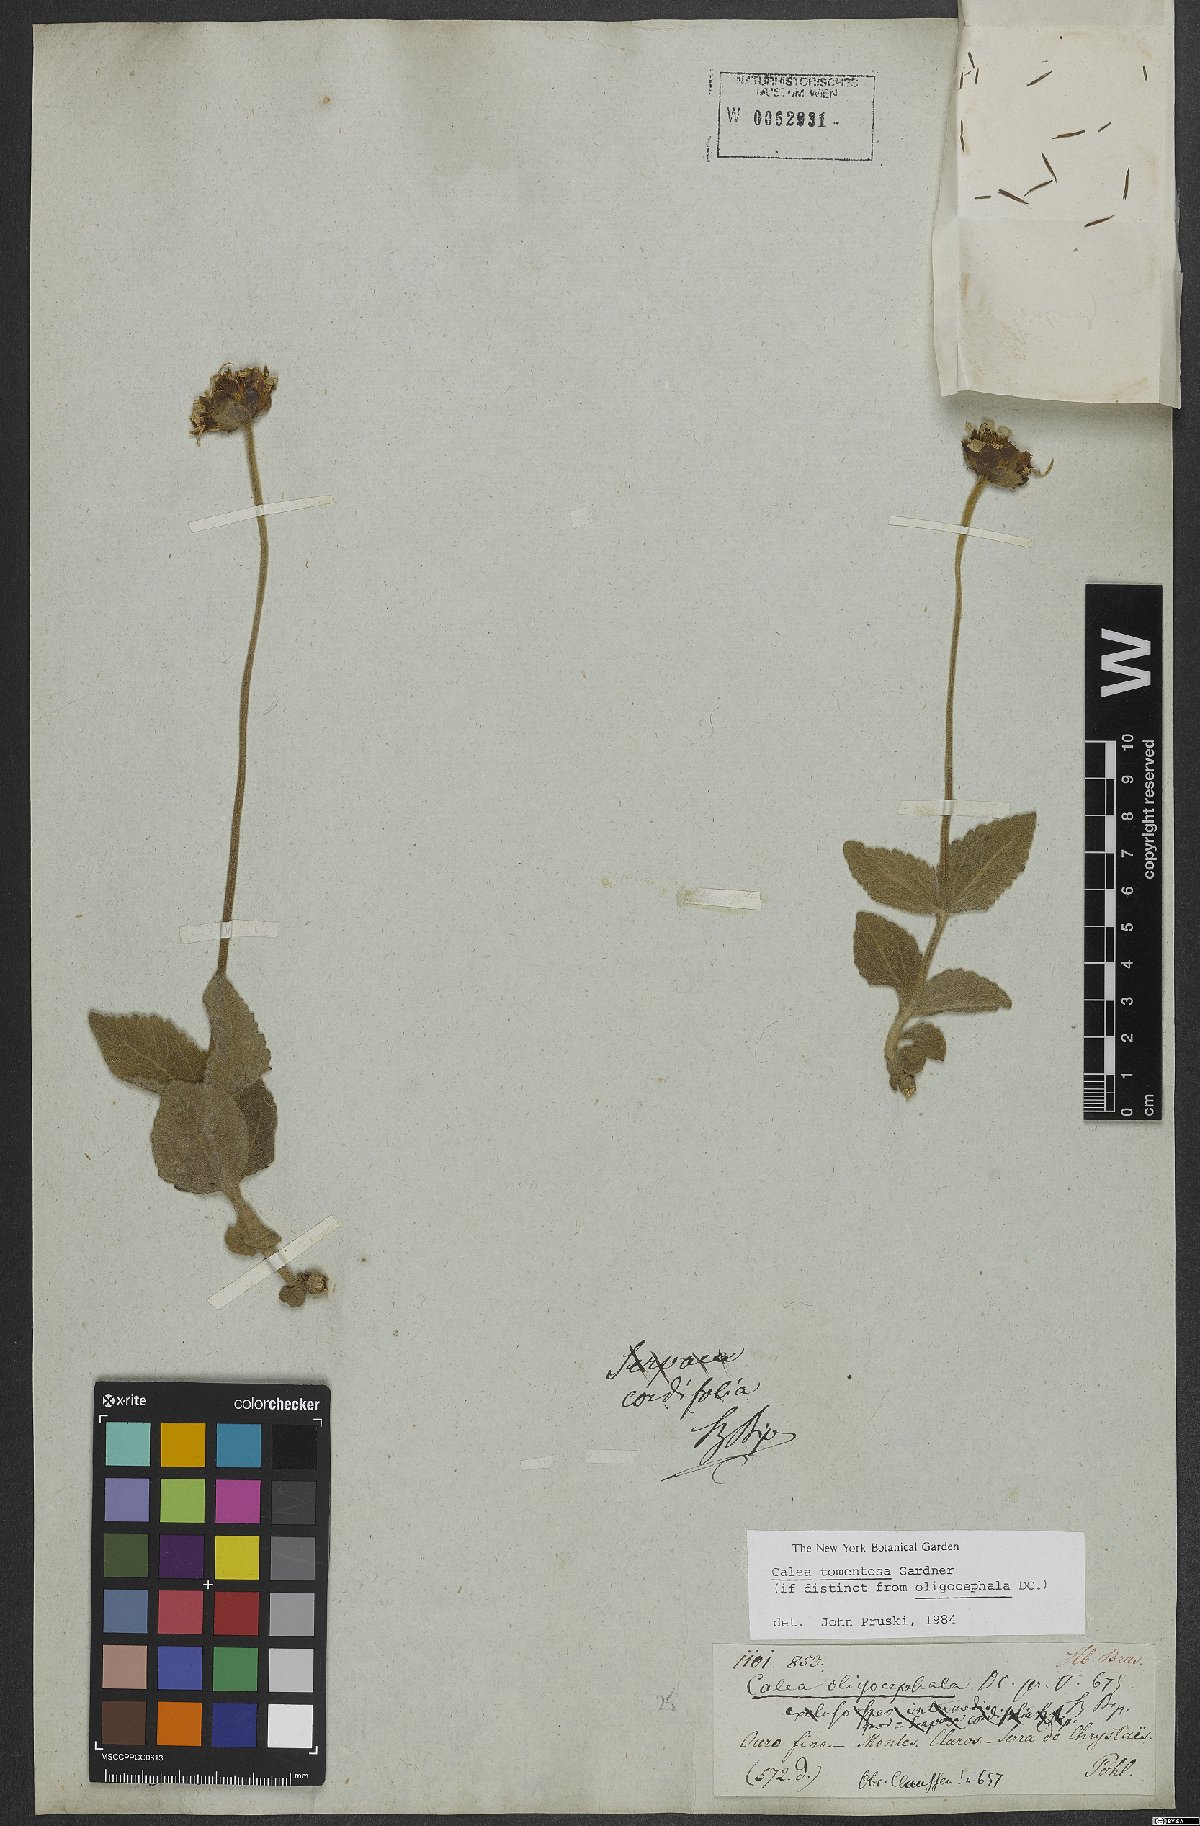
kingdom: Plantae
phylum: Tracheophyta
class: Magnoliopsida
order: Asterales
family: Asteraceae
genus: Tetrachyron
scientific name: Tetrachyron grayi
